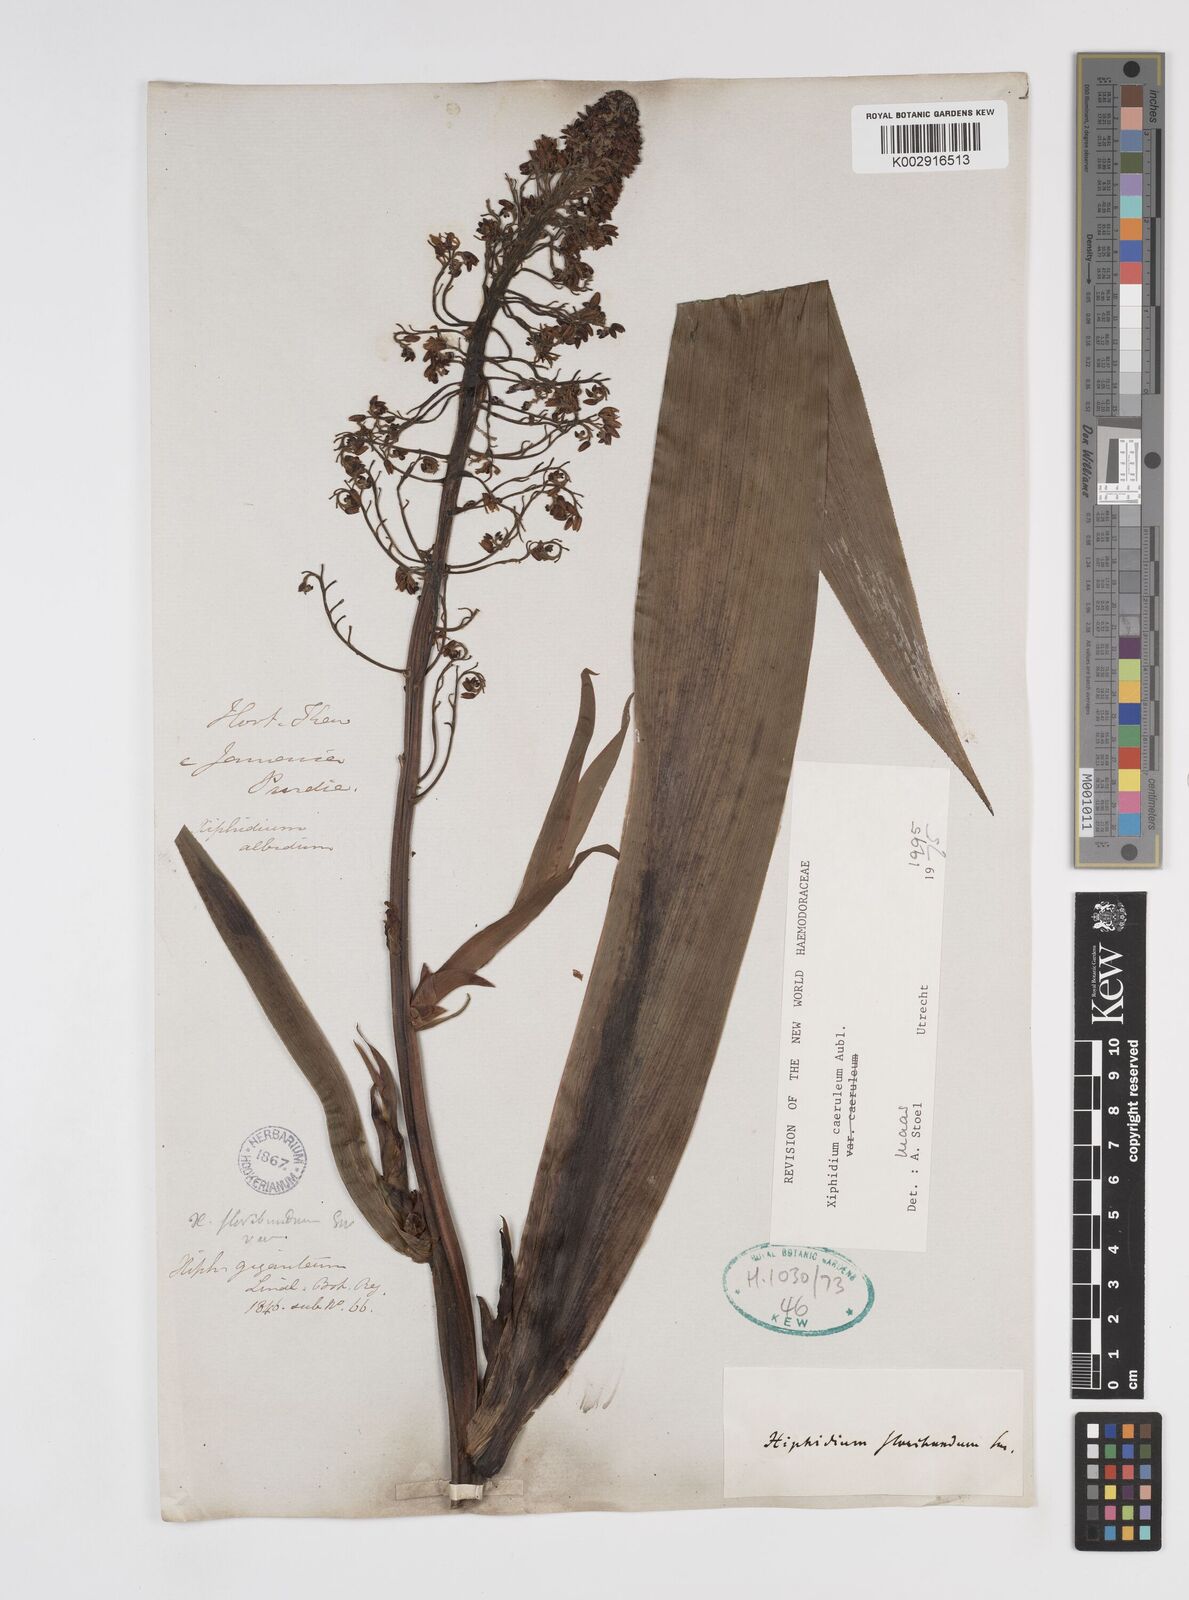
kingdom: Plantae
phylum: Tracheophyta
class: Liliopsida
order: Commelinales
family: Haemodoraceae
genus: Xiphidium
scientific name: Xiphidium caeruleum
